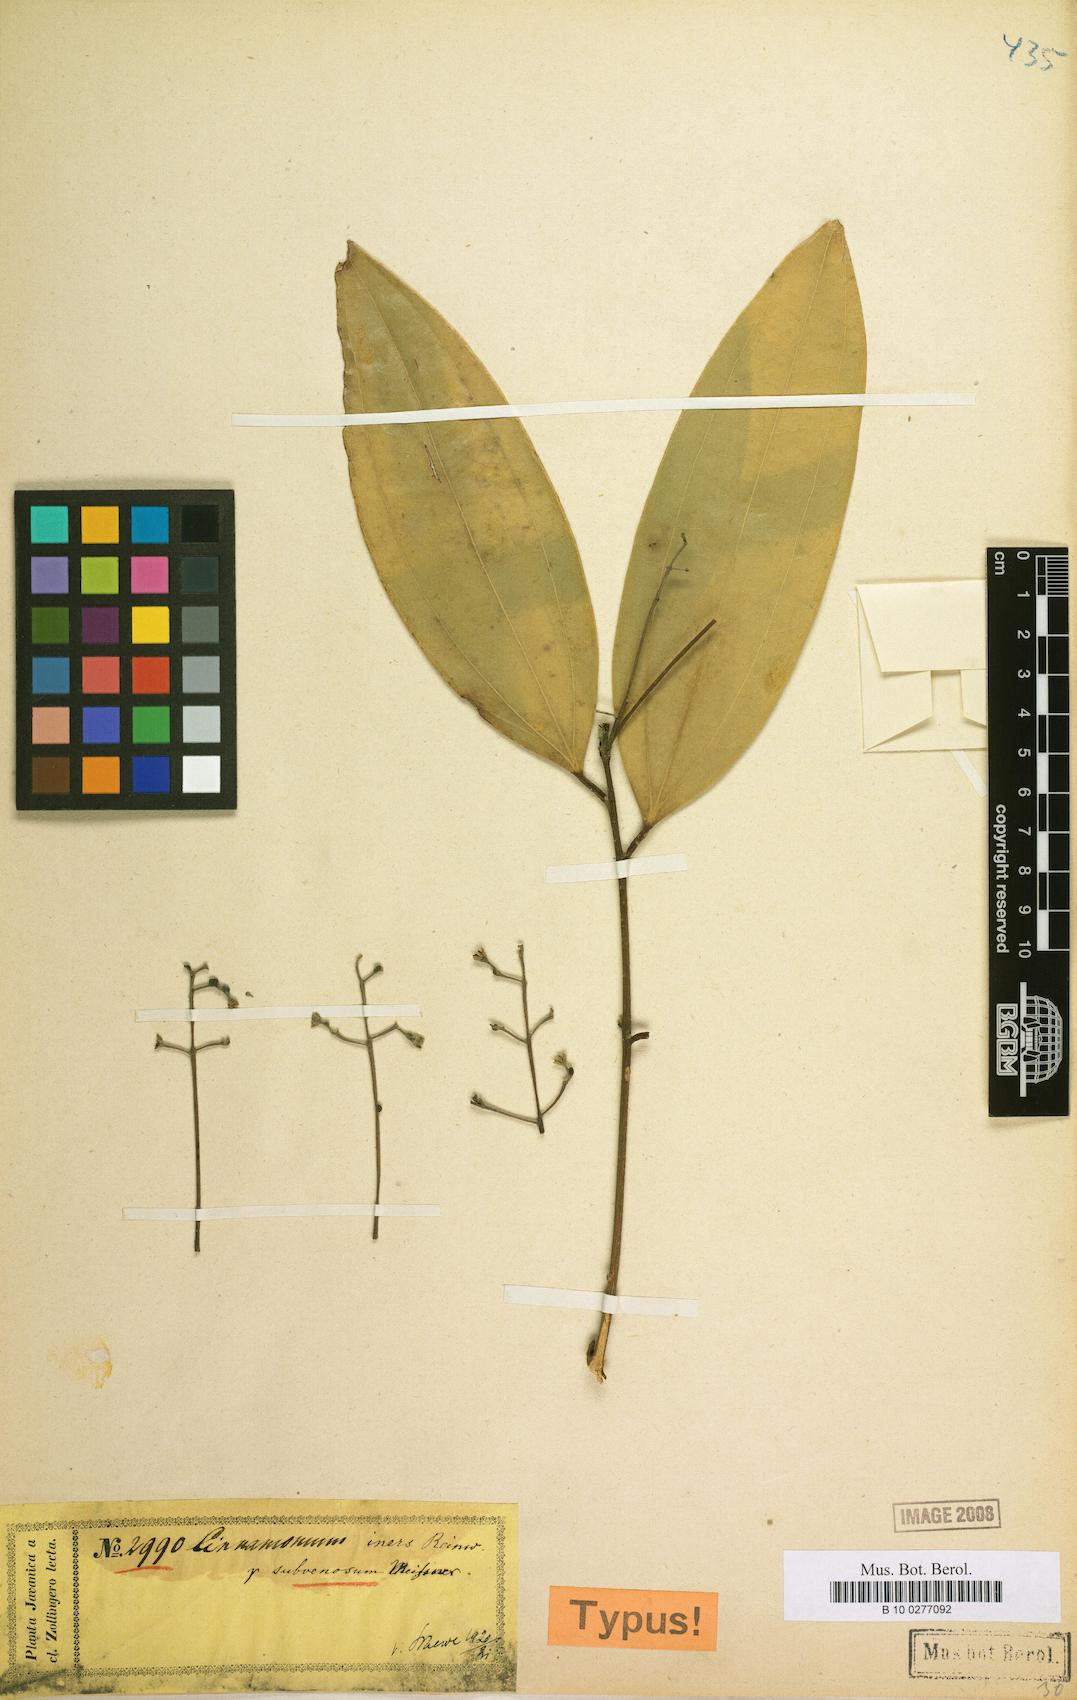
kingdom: Plantae
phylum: Tracheophyta
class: Magnoliopsida
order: Laurales
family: Lauraceae
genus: Cinnamomum
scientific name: Cinnamomum iners
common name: Wild cinnamon
